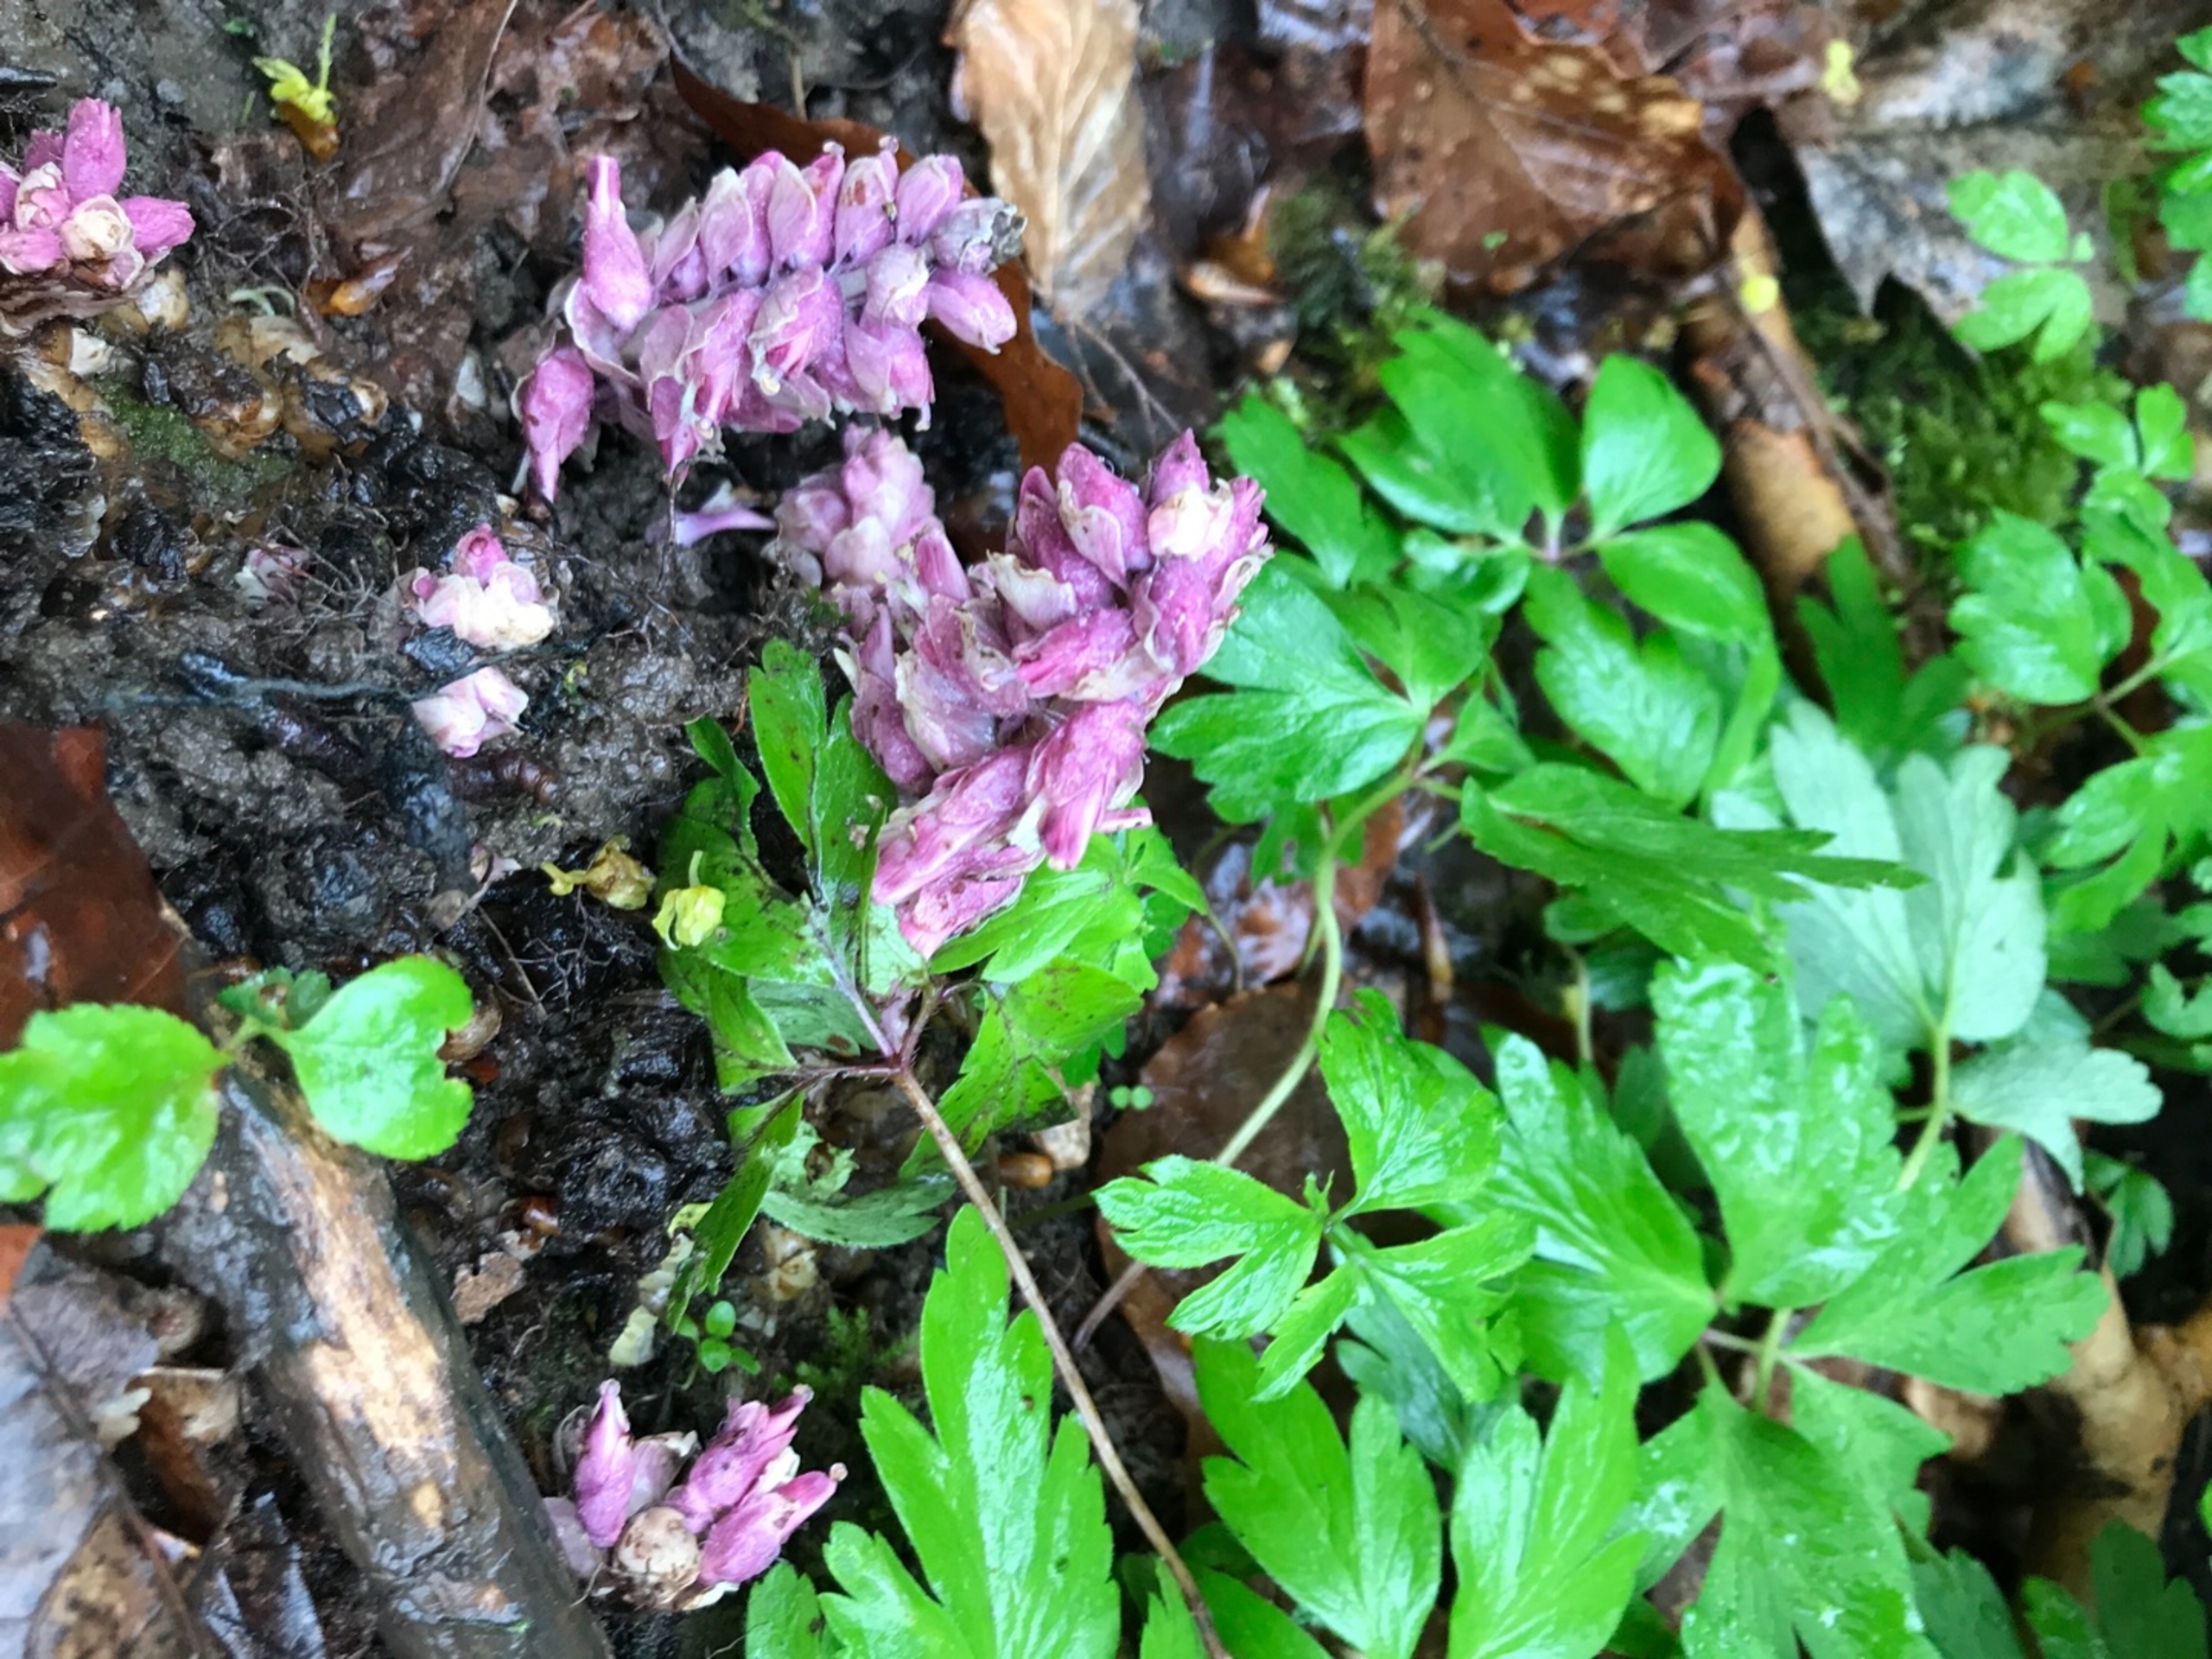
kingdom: Plantae
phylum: Tracheophyta
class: Magnoliopsida
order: Lamiales
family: Orobanchaceae
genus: Lathraea
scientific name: Lathraea squamaria
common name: Skælrod
